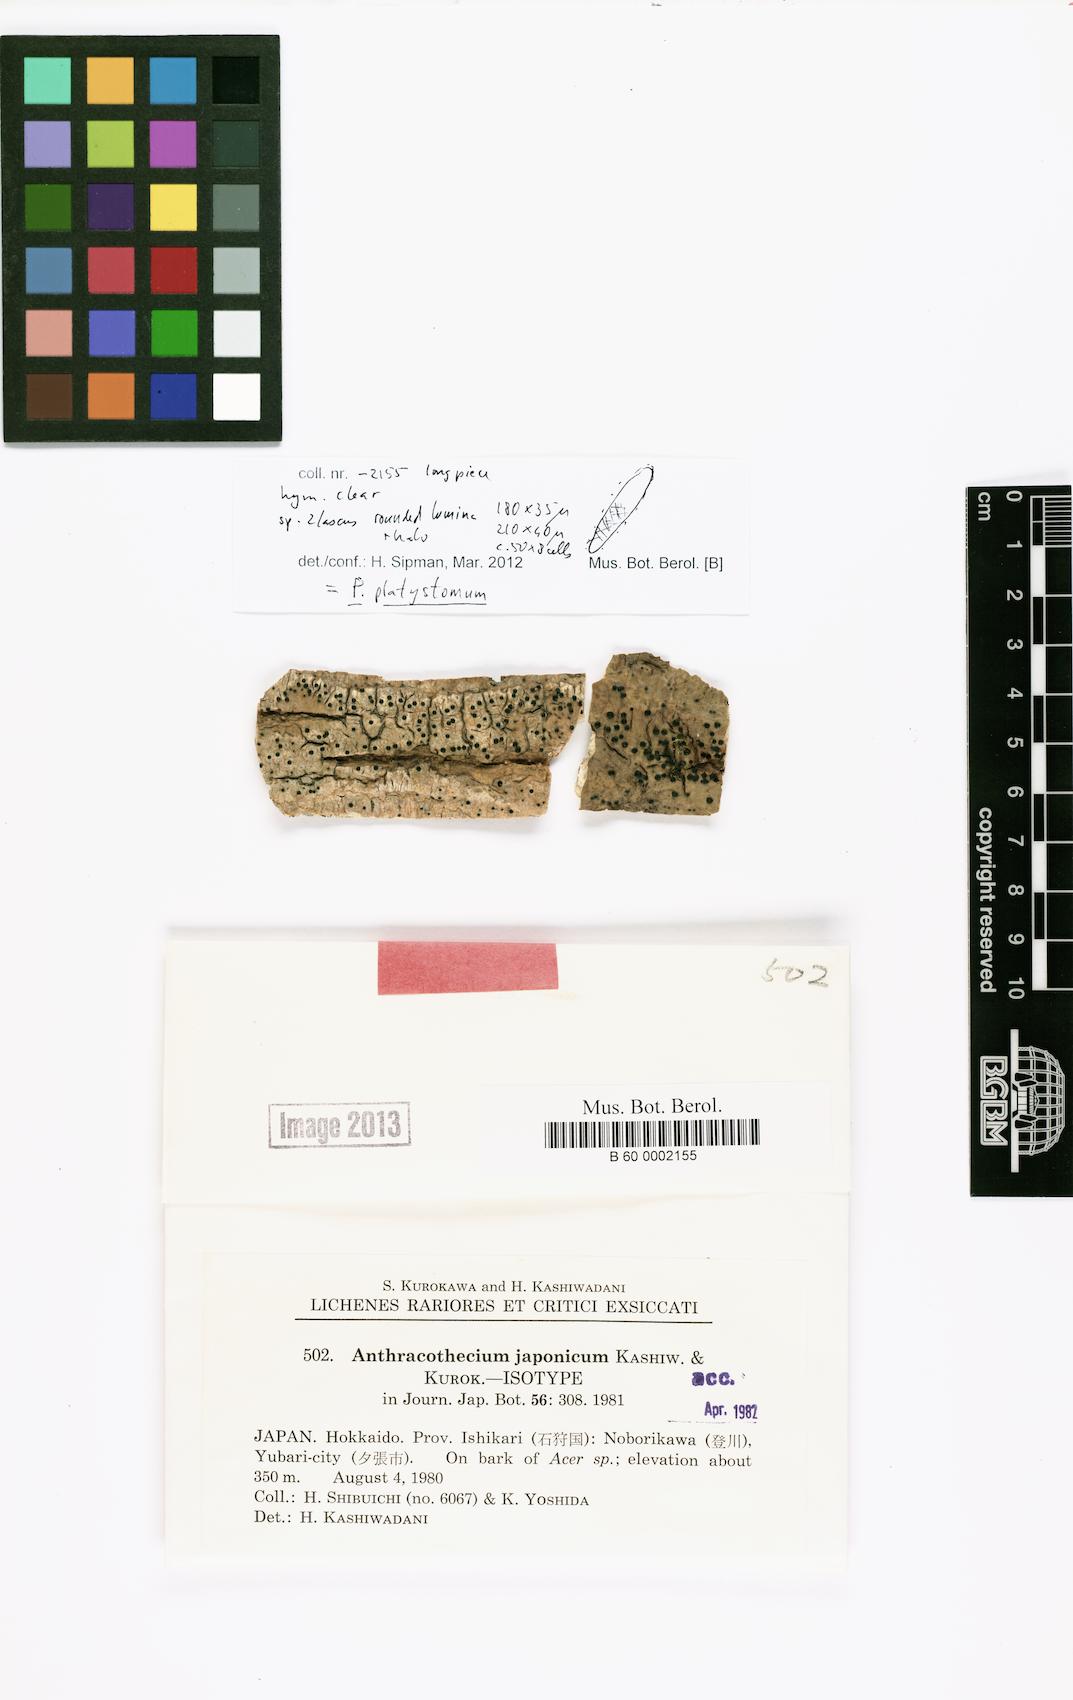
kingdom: Fungi
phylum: Ascomycota
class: Eurotiomycetes
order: Pyrenulales
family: Pyrenulaceae
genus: Pyrenula
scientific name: Pyrenula neojaponica
